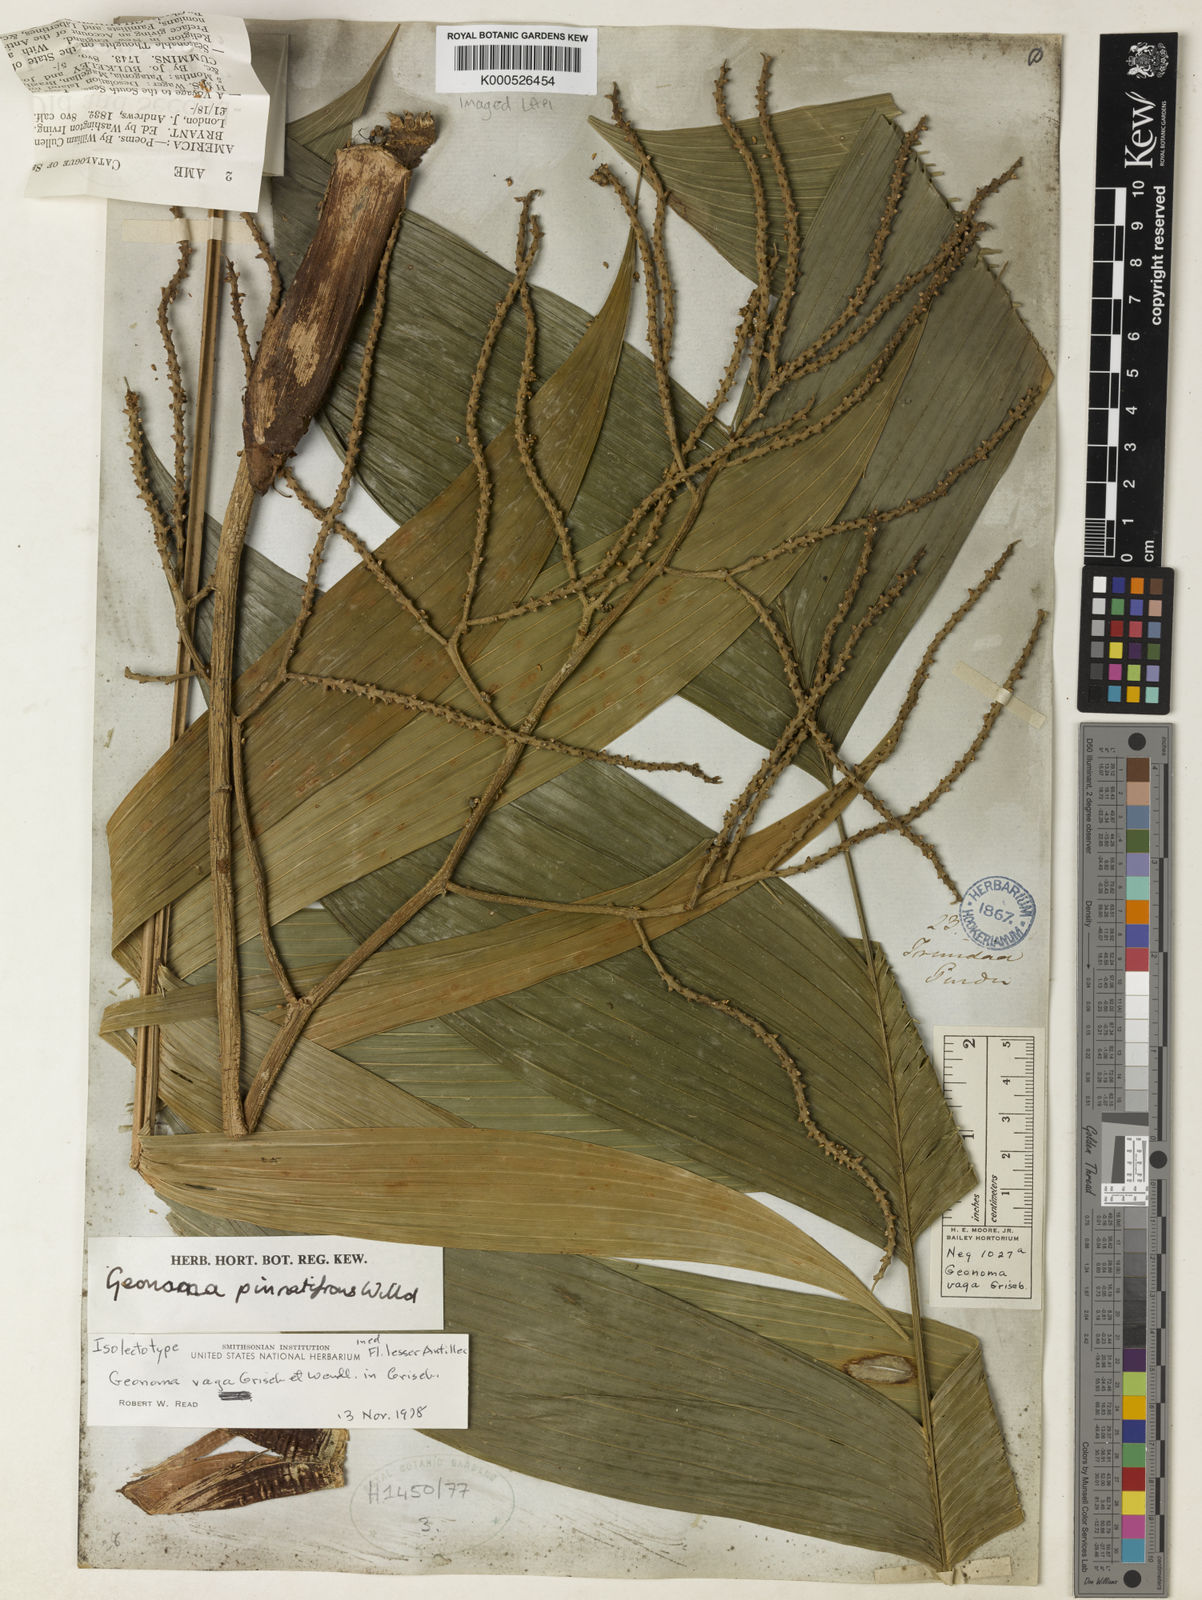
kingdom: Plantae
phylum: Tracheophyta
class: Liliopsida
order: Arecales
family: Arecaceae
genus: Geonoma
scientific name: Geonoma pinnatifrons
